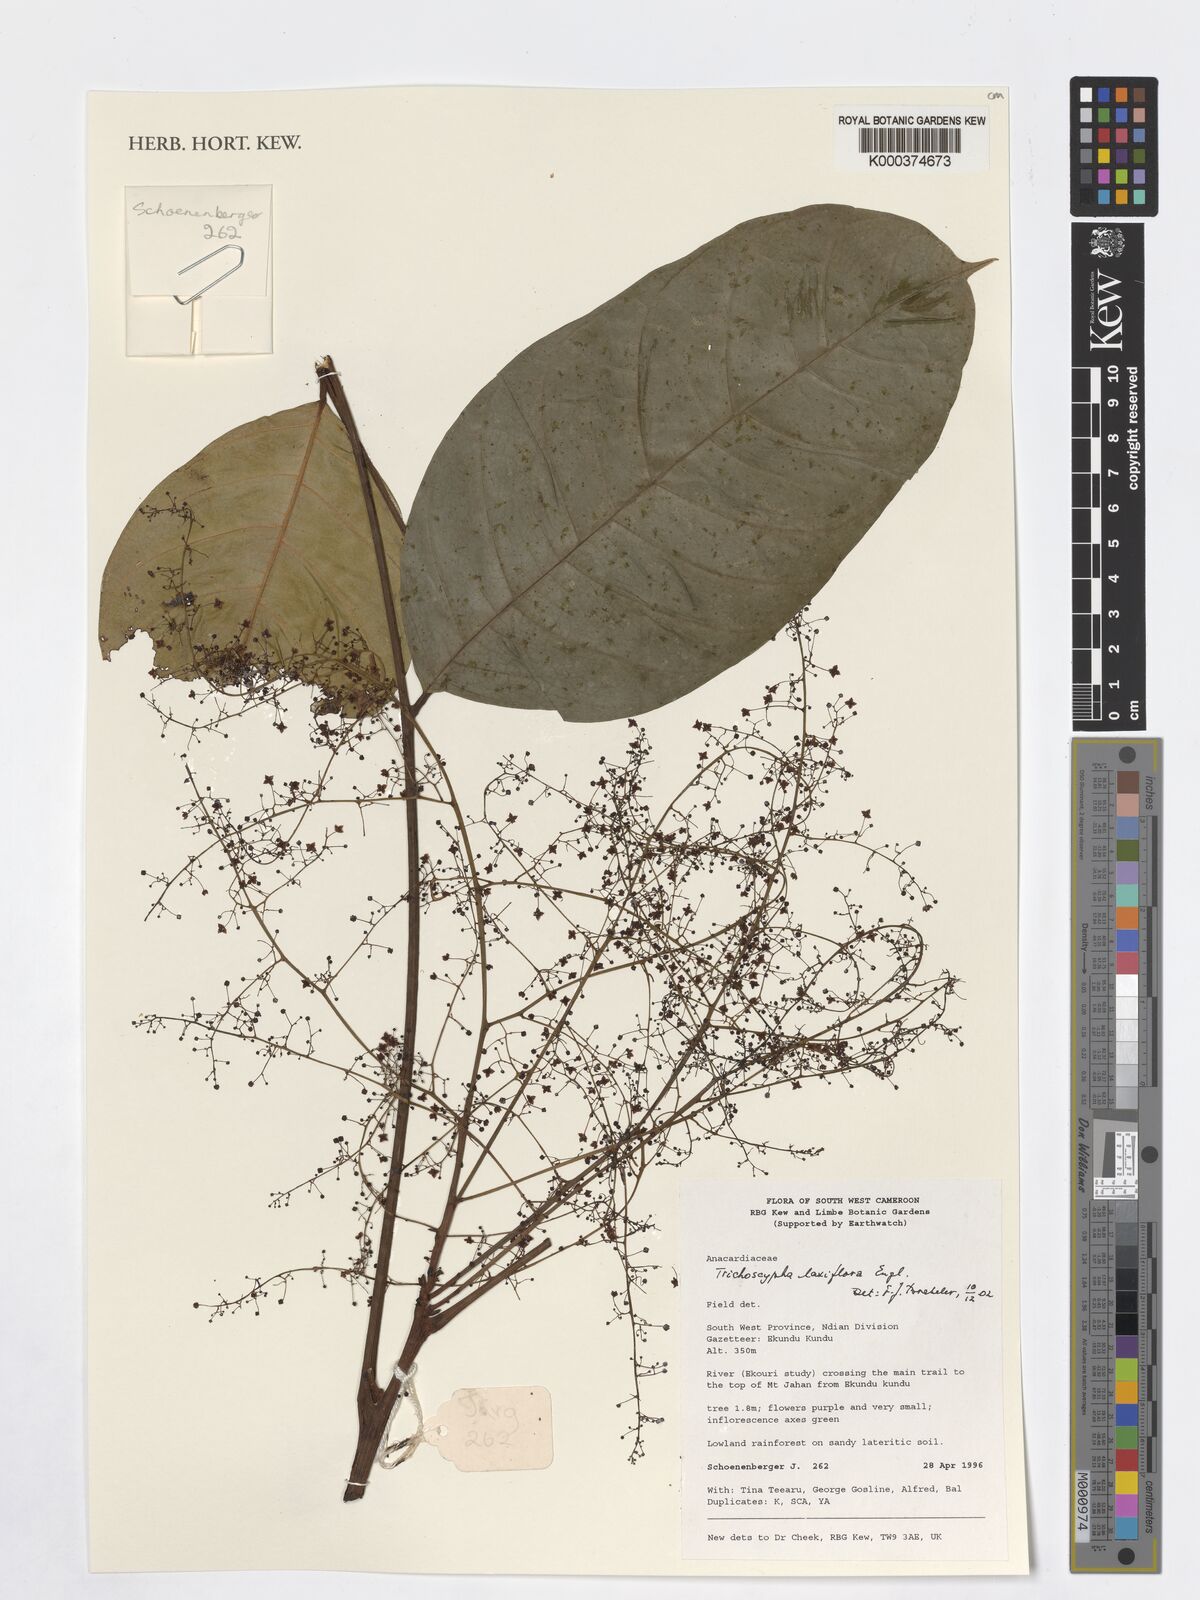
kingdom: Plantae
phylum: Tracheophyta
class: Magnoliopsida
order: Sapindales
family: Anacardiaceae
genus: Trichoscypha
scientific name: Trichoscypha laxiflora
